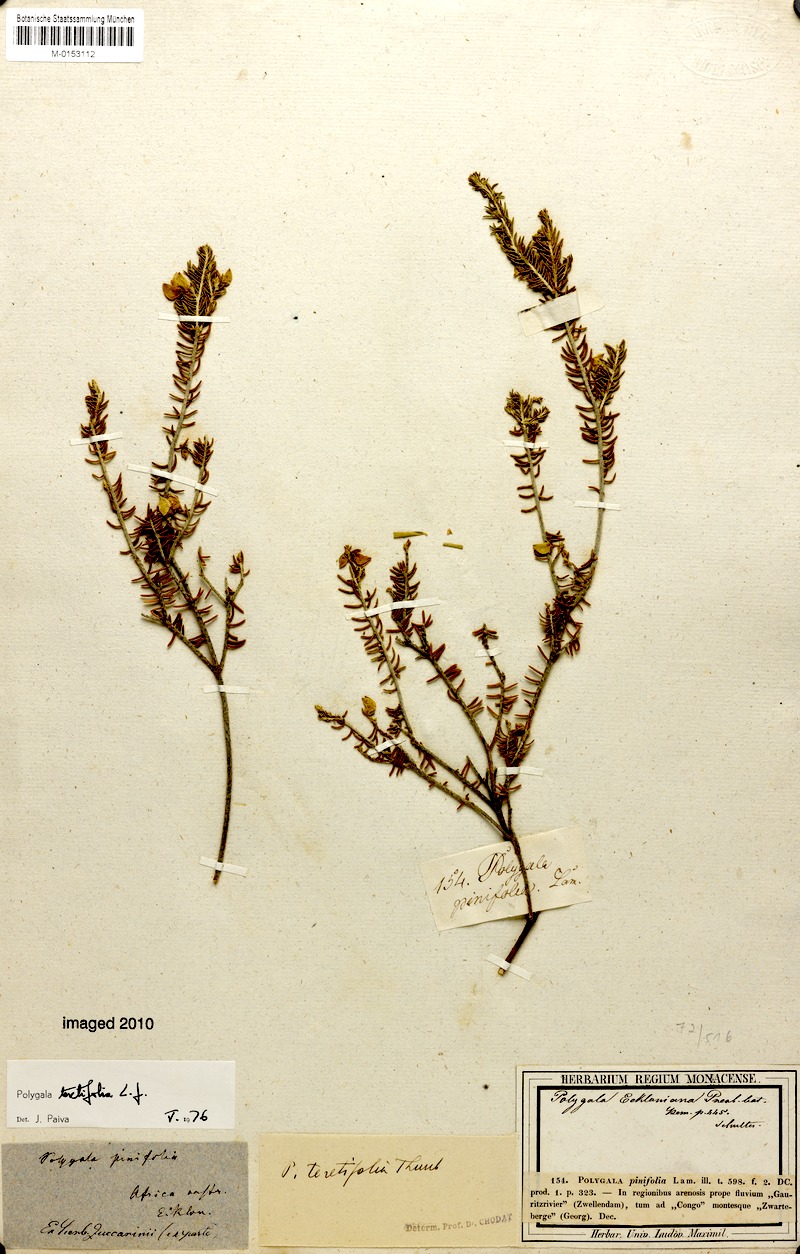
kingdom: Plantae
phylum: Tracheophyta
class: Magnoliopsida
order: Fabales
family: Polygalaceae
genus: Polygala
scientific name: Polygala teretifolia
